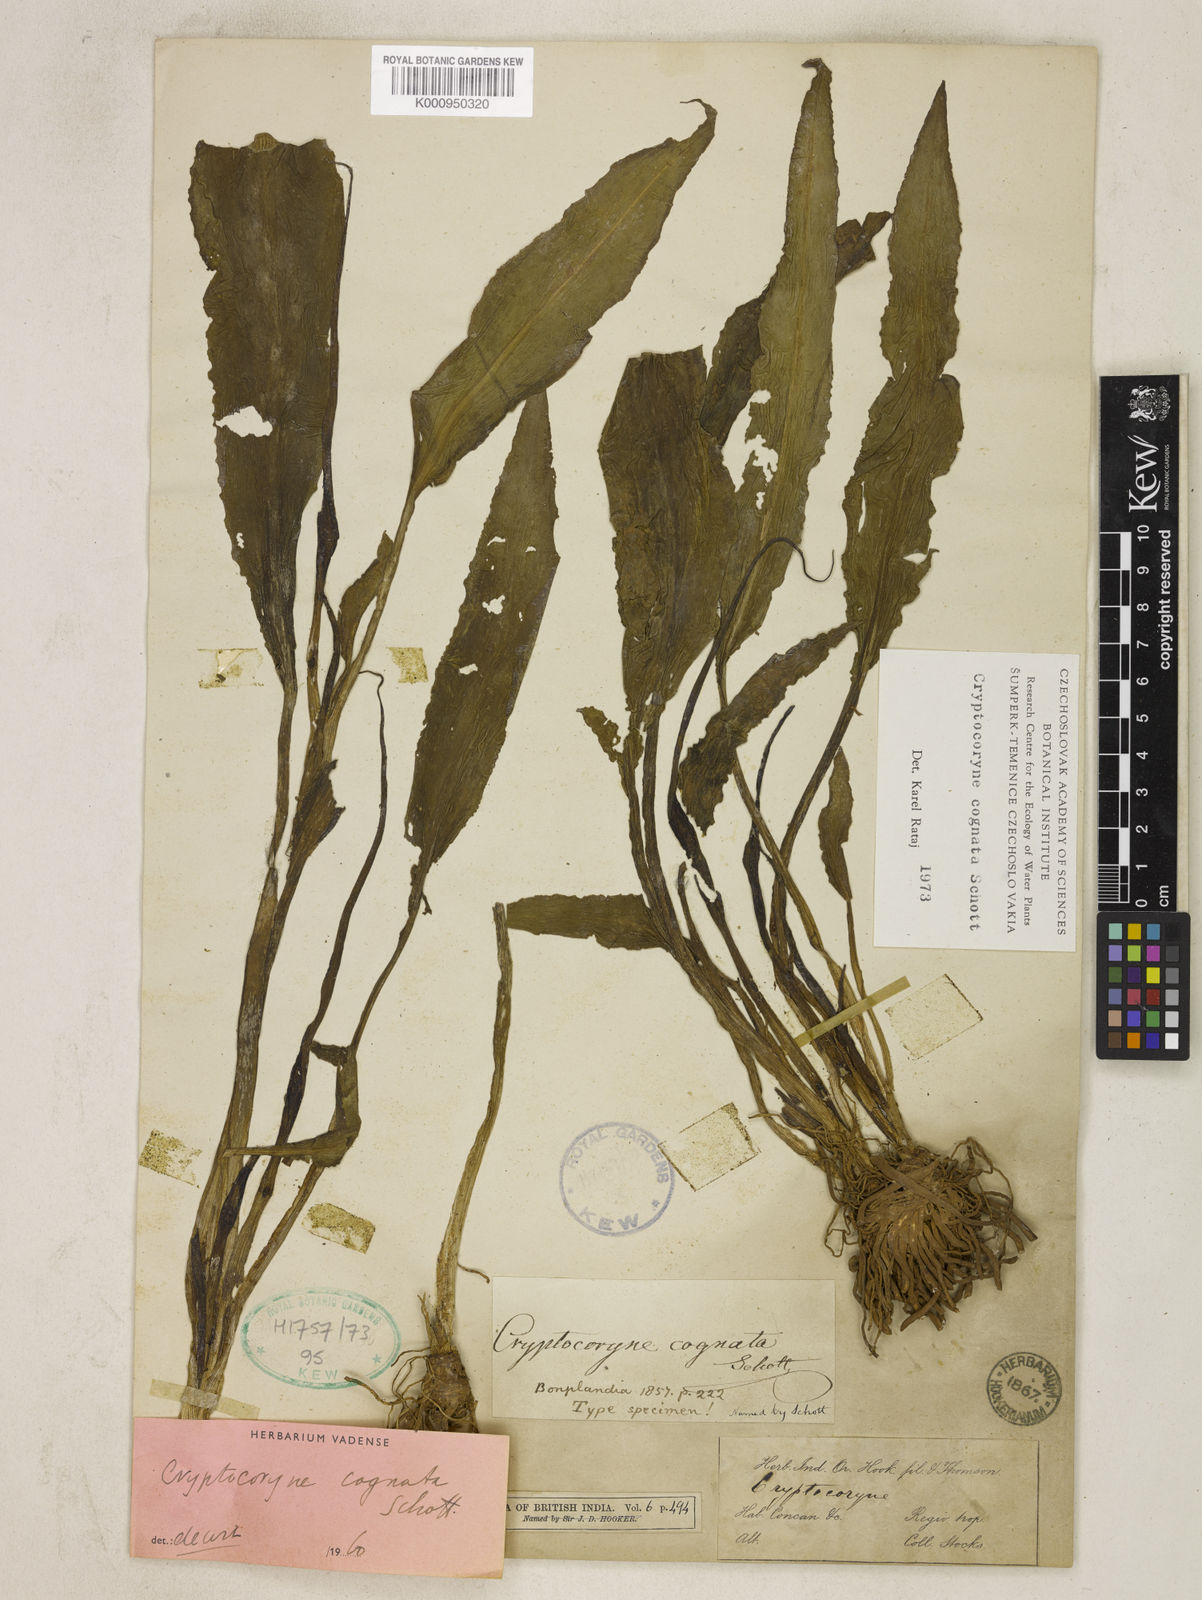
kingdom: Plantae
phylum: Tracheophyta
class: Liliopsida
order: Alismatales
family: Araceae
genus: Cryptocoryne
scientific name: Cryptocoryne cognata
